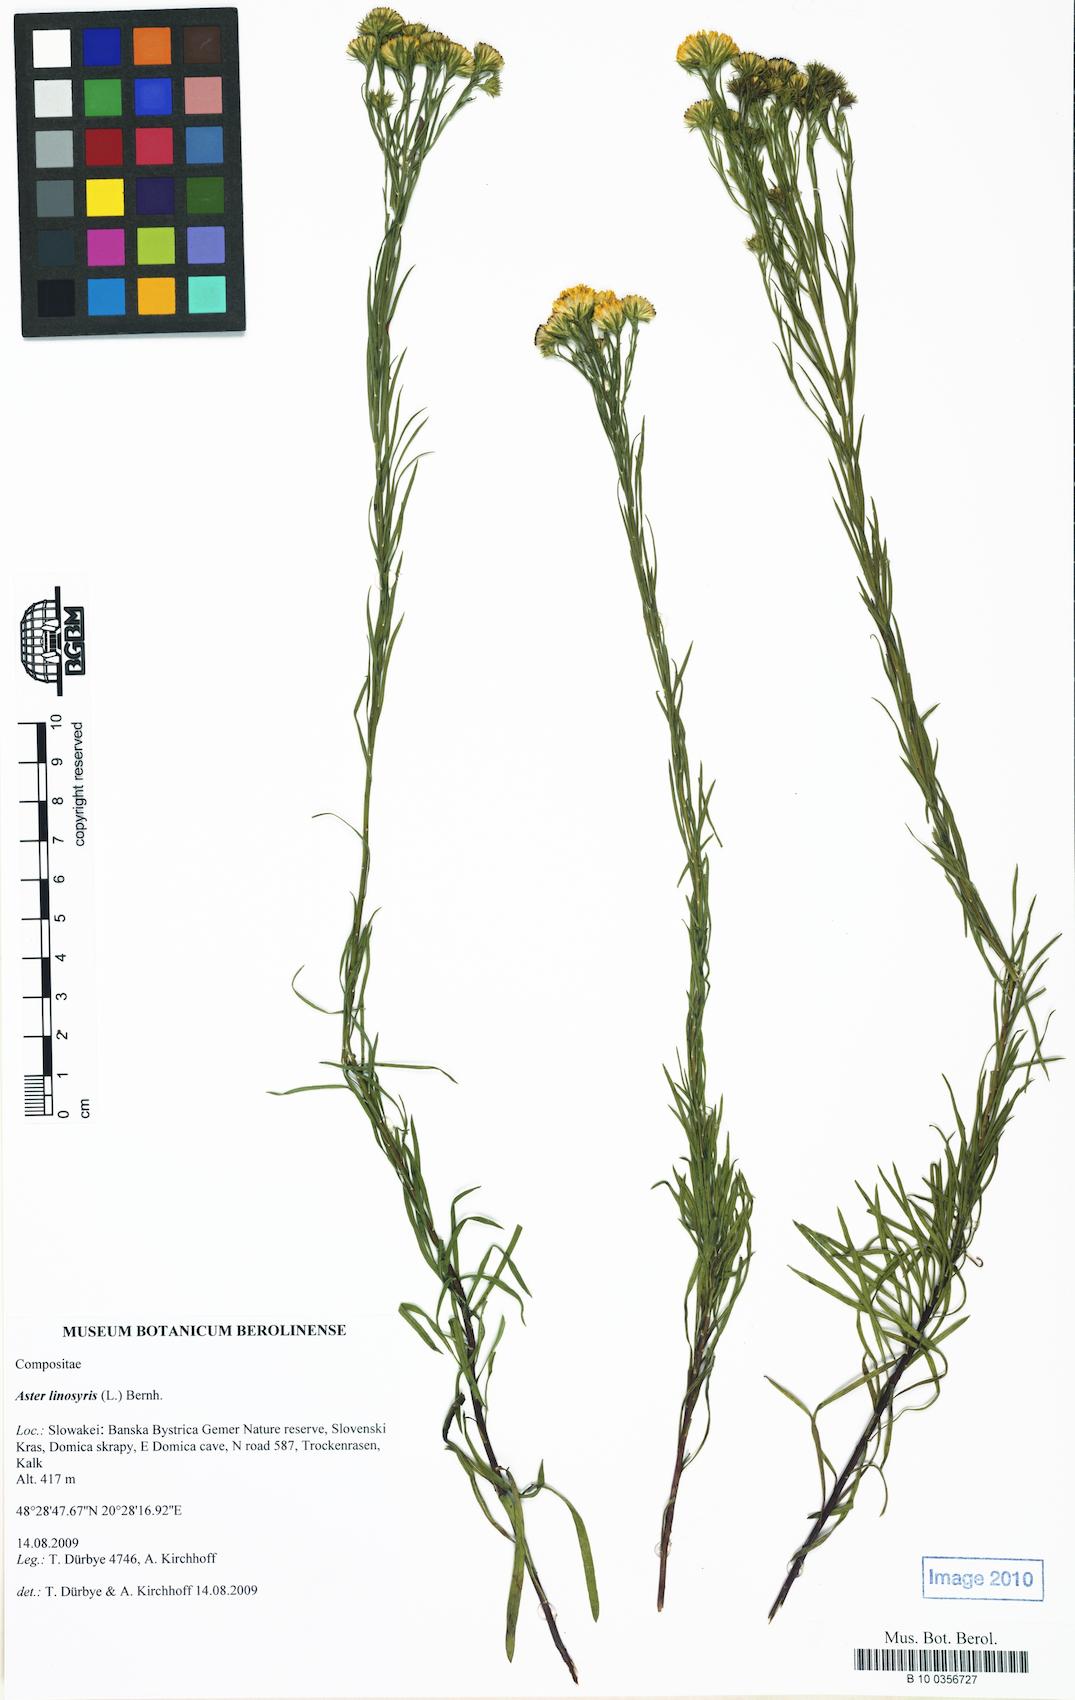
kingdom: Plantae
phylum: Tracheophyta
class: Magnoliopsida
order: Asterales
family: Asteraceae
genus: Galatella
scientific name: Galatella linosyris
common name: Goldilocks aster
